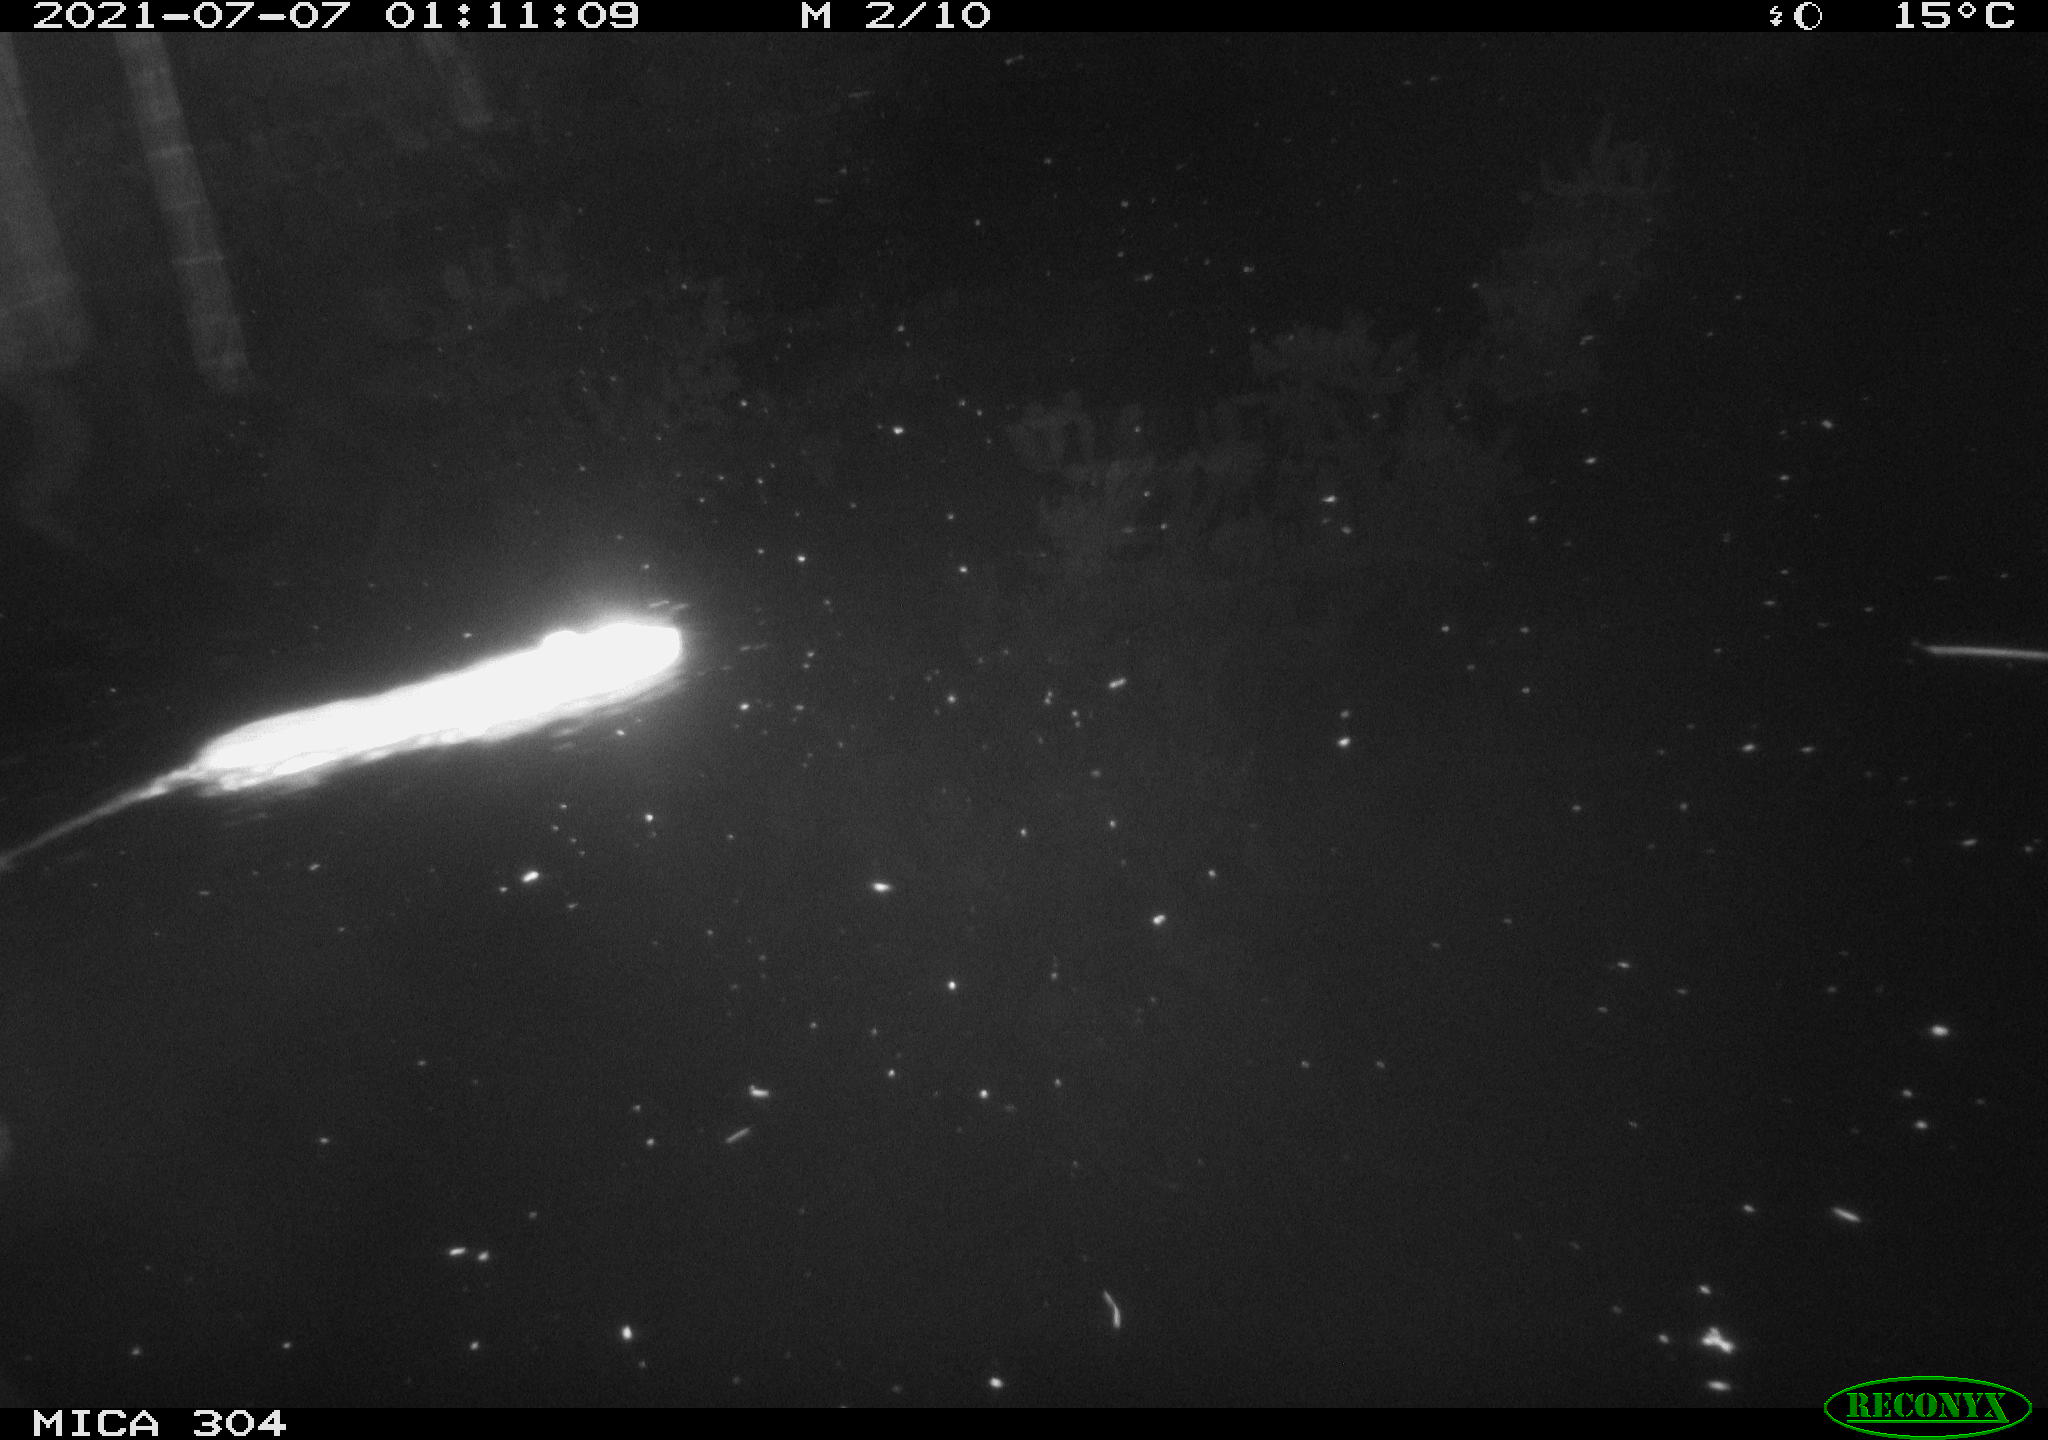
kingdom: Animalia
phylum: Chordata
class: Mammalia
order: Rodentia
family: Muridae
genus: Rattus
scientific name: Rattus norvegicus
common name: Brown rat
